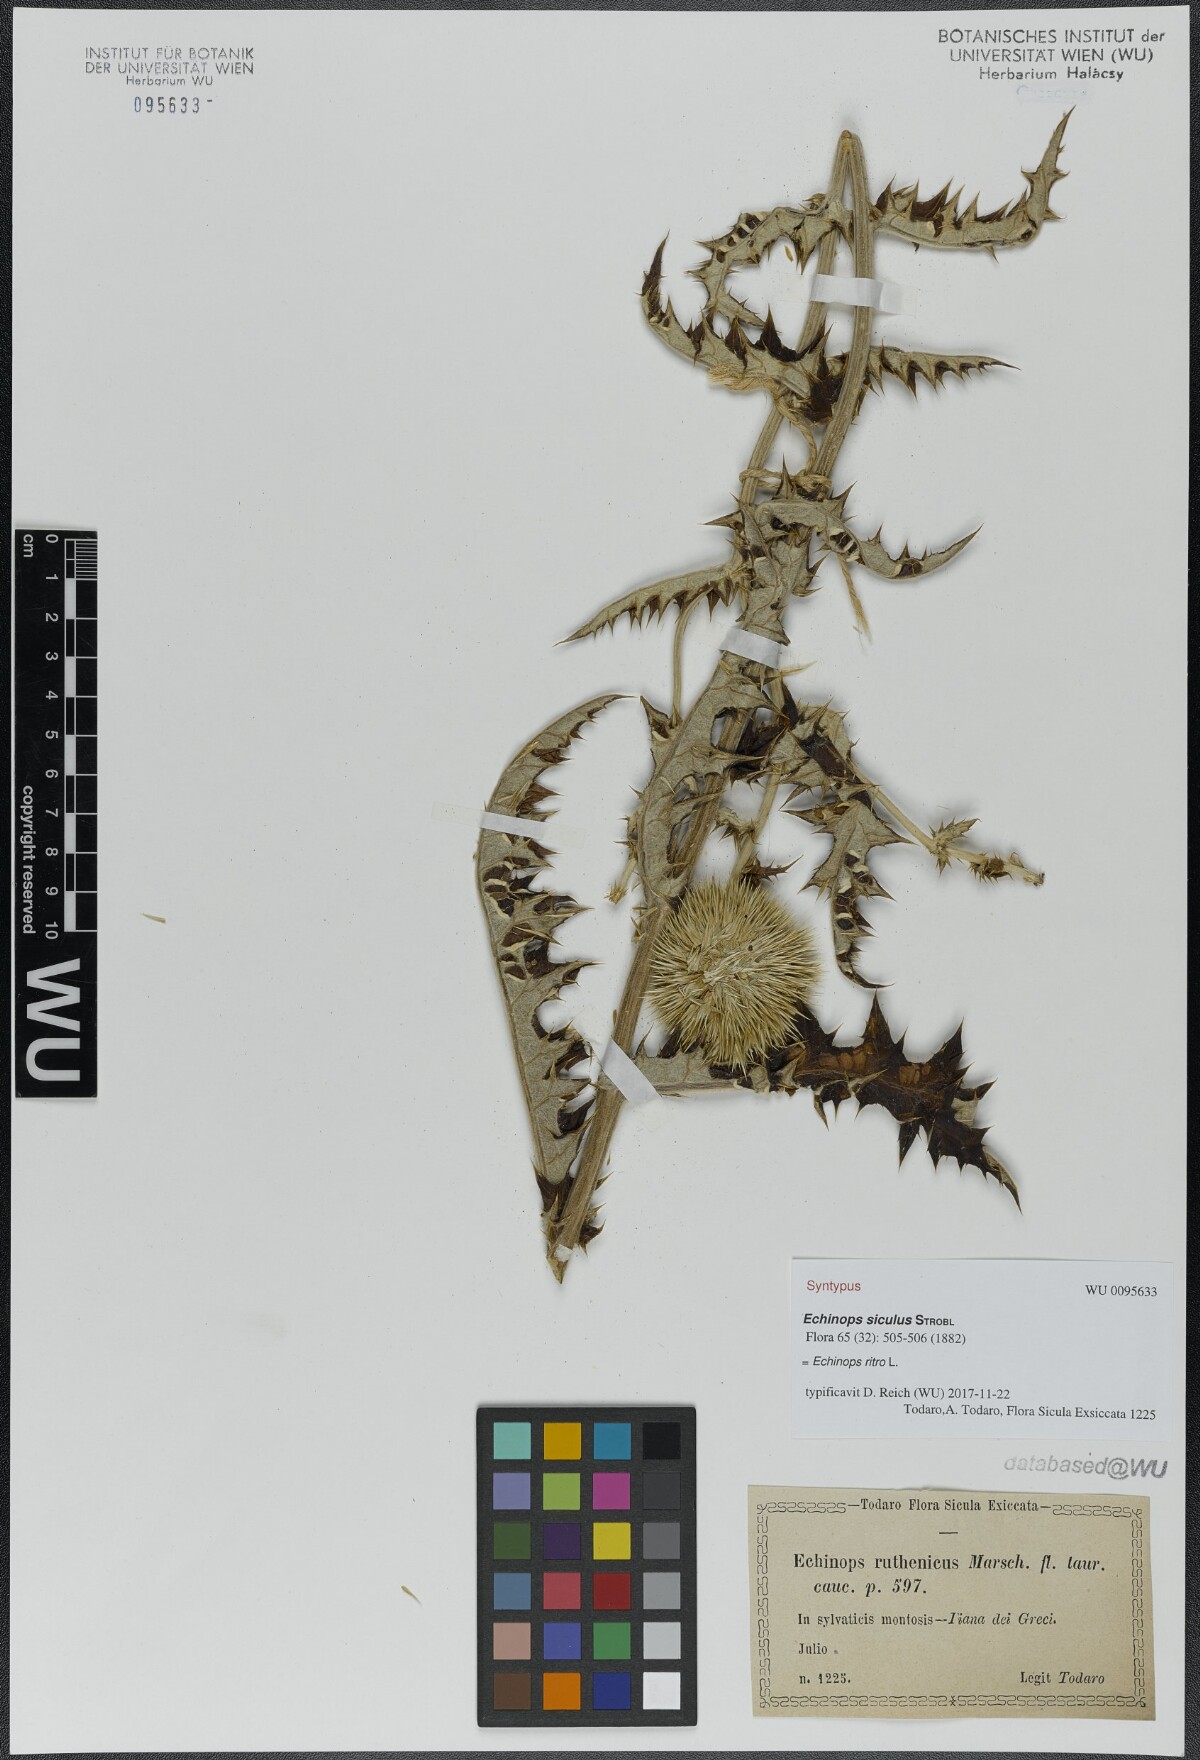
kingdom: Plantae
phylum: Tracheophyta
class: Magnoliopsida
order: Asterales
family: Asteraceae
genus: Echinops
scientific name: Echinops ritro
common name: Globe thistle
